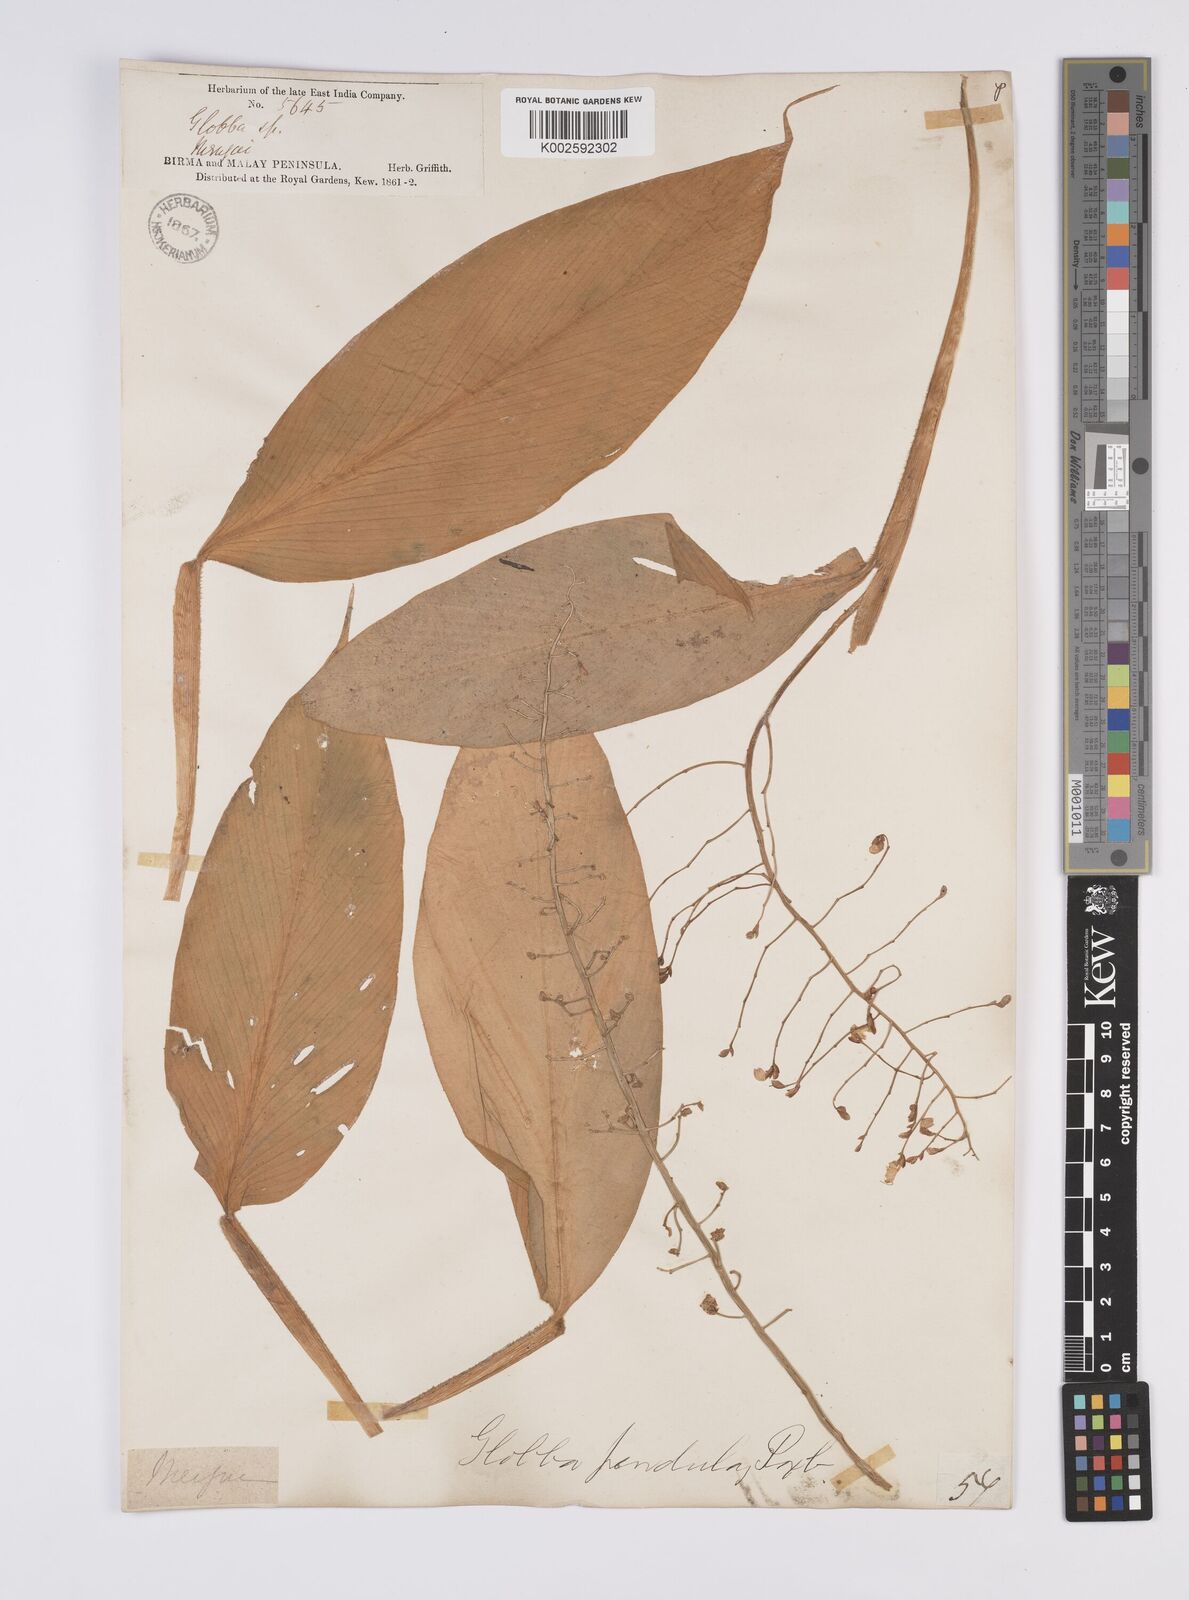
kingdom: Plantae
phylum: Tracheophyta
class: Liliopsida
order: Zingiberales
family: Zingiberaceae
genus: Globba
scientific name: Globba pendula
